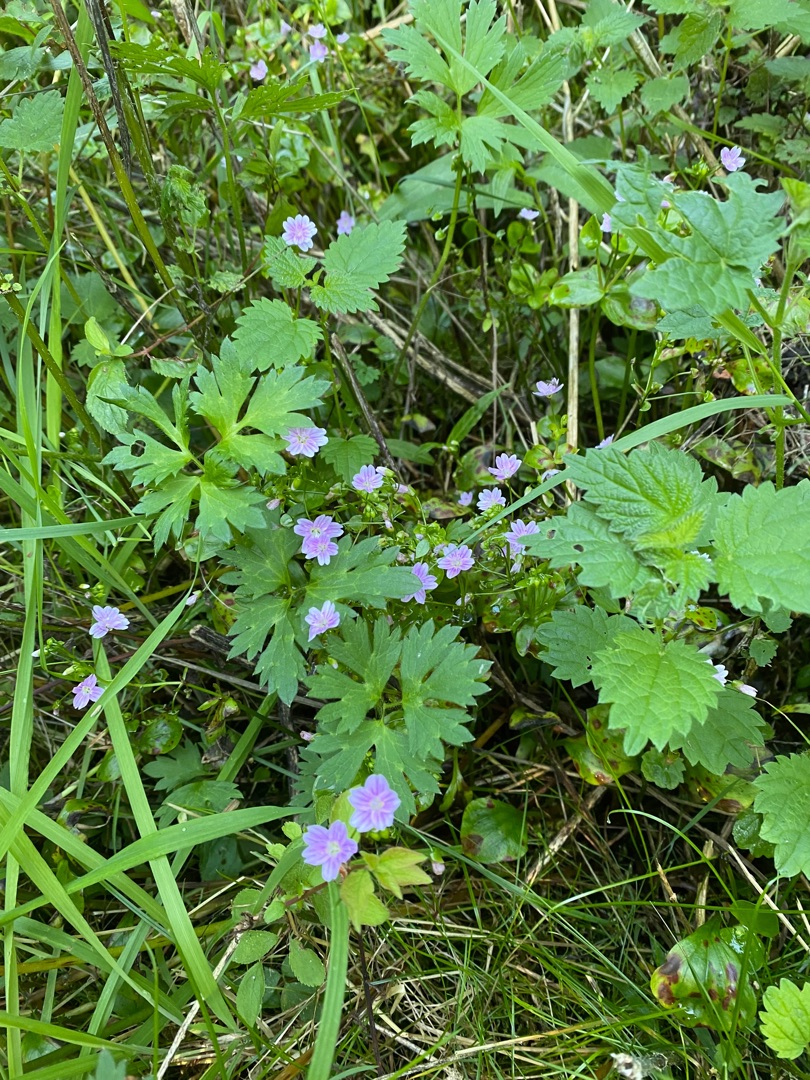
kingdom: Plantae
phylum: Tracheophyta
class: Magnoliopsida
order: Caryophyllales
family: Montiaceae
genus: Claytonia
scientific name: Claytonia sibirica
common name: Sibirisk vinterportulak
